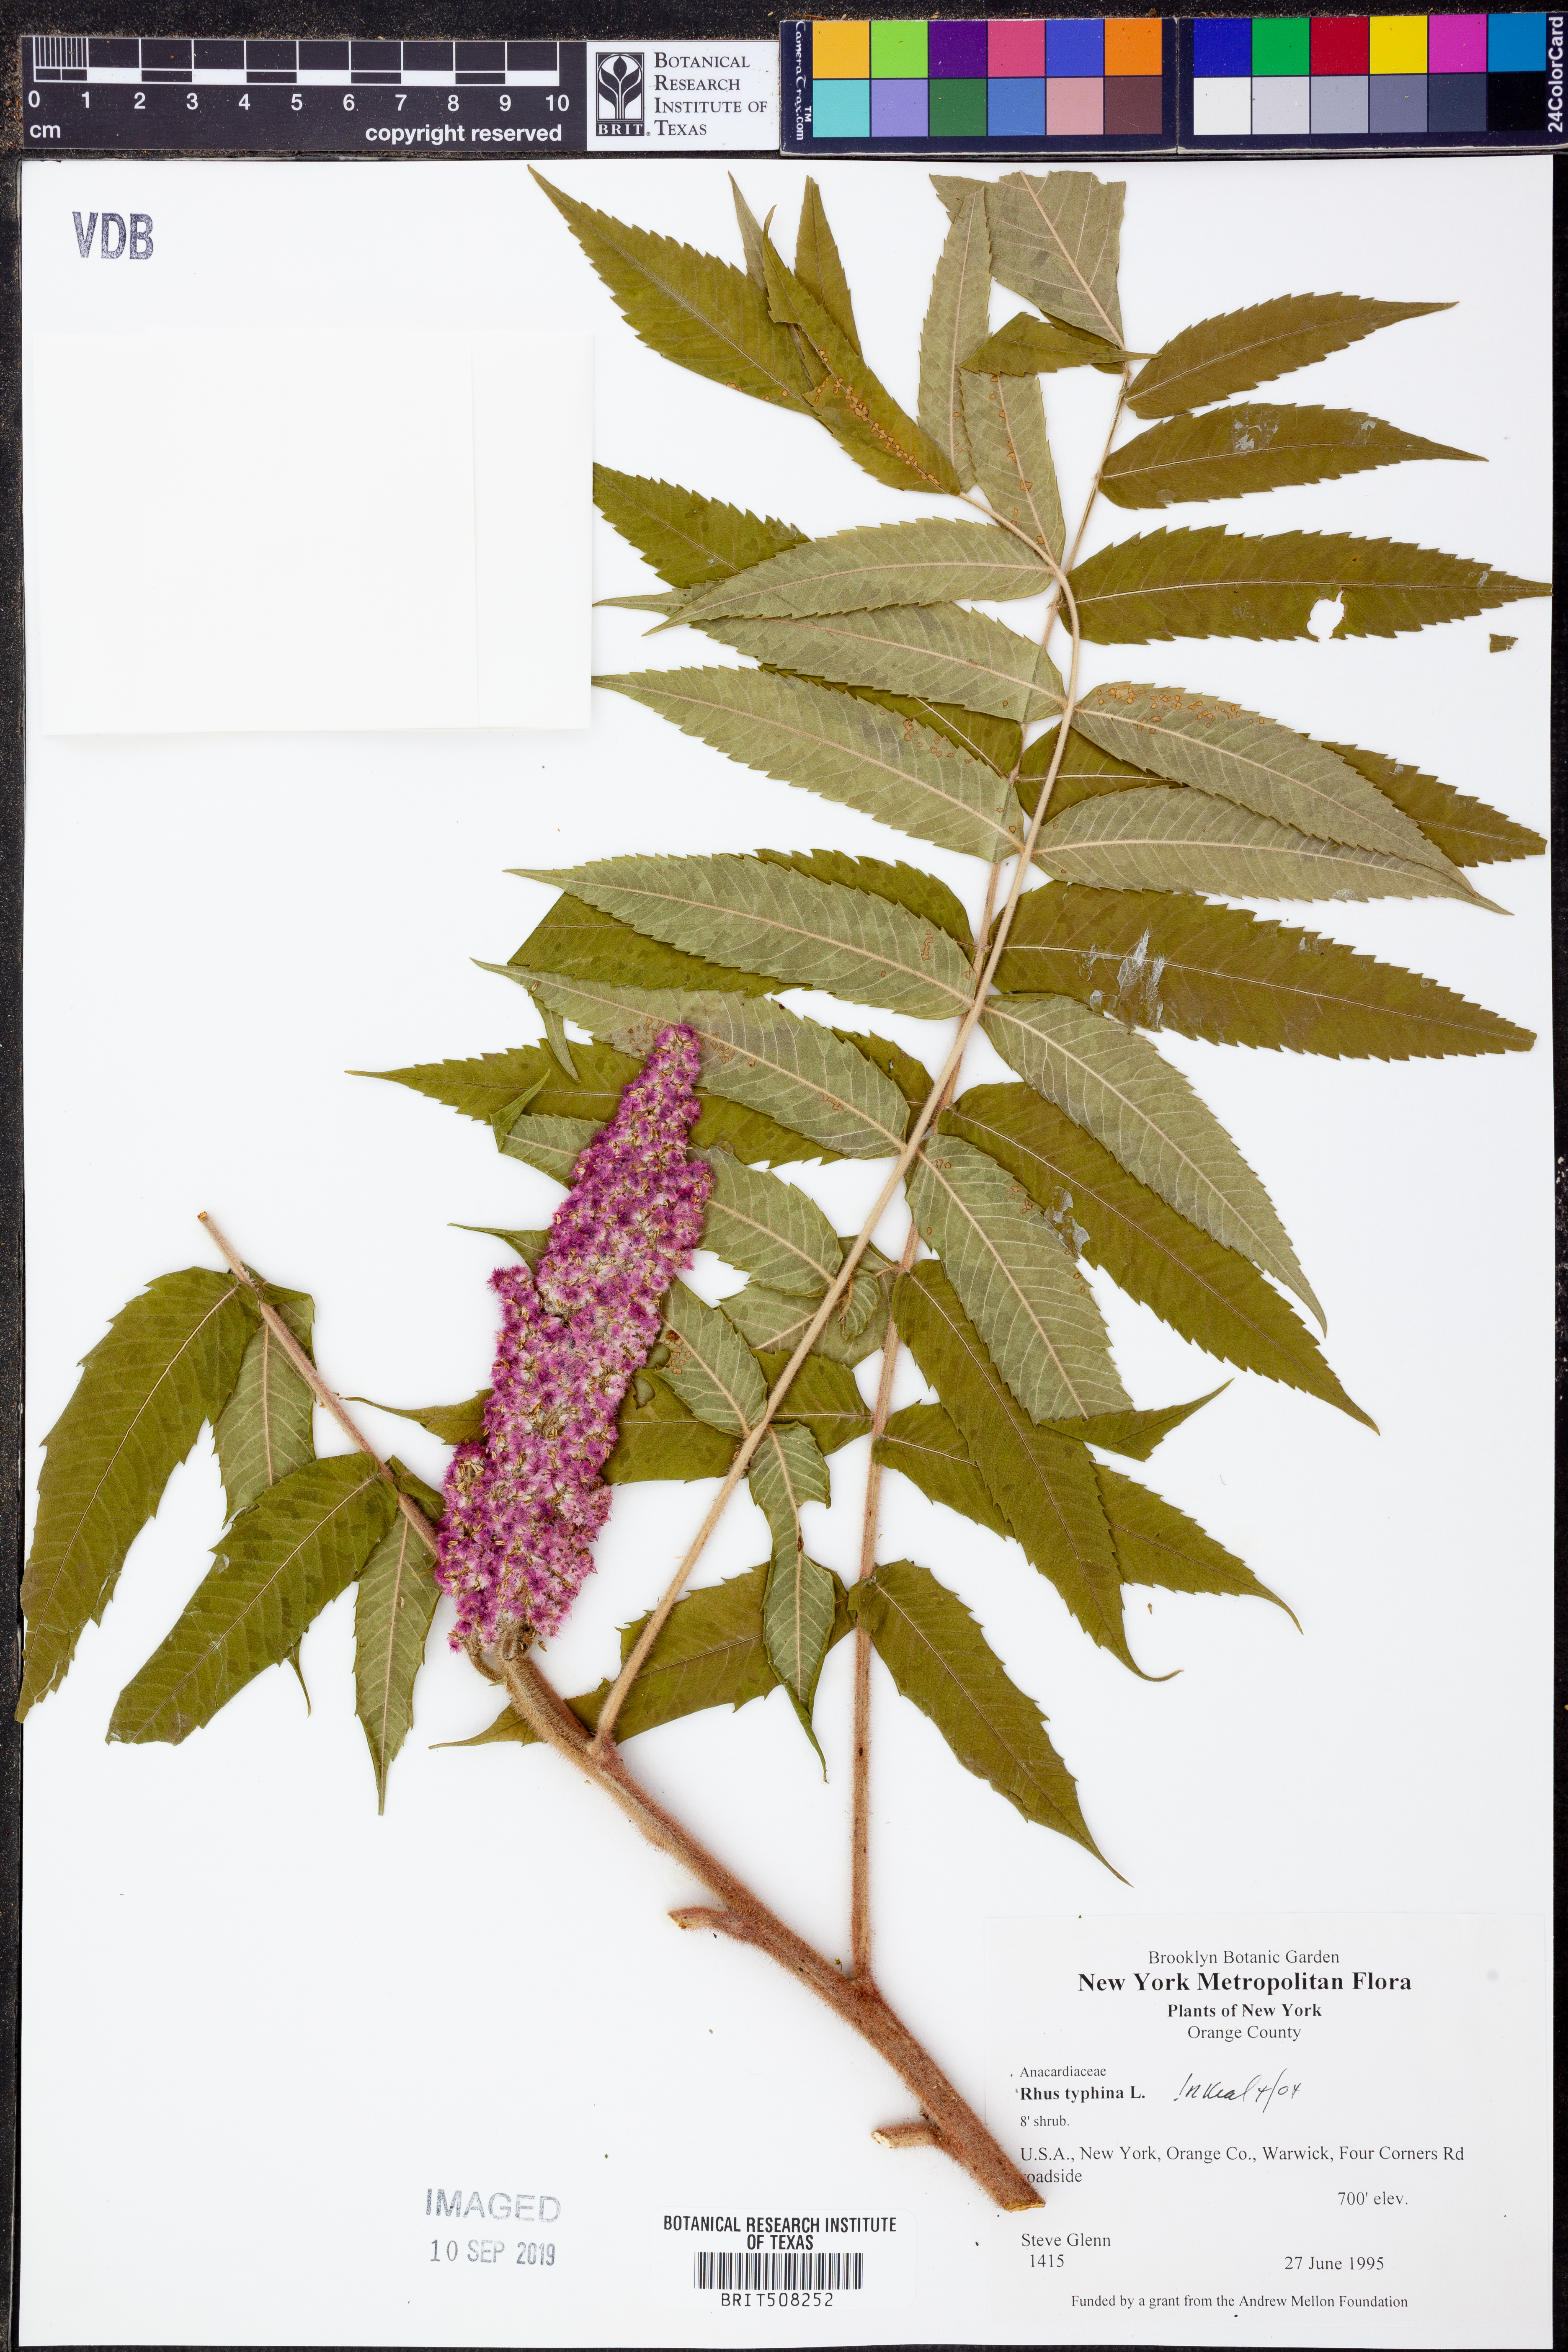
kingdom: Plantae
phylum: Tracheophyta
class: Magnoliopsida
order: Sapindales
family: Anacardiaceae
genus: Rhus
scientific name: Rhus typhina
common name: Staghorn sumac
